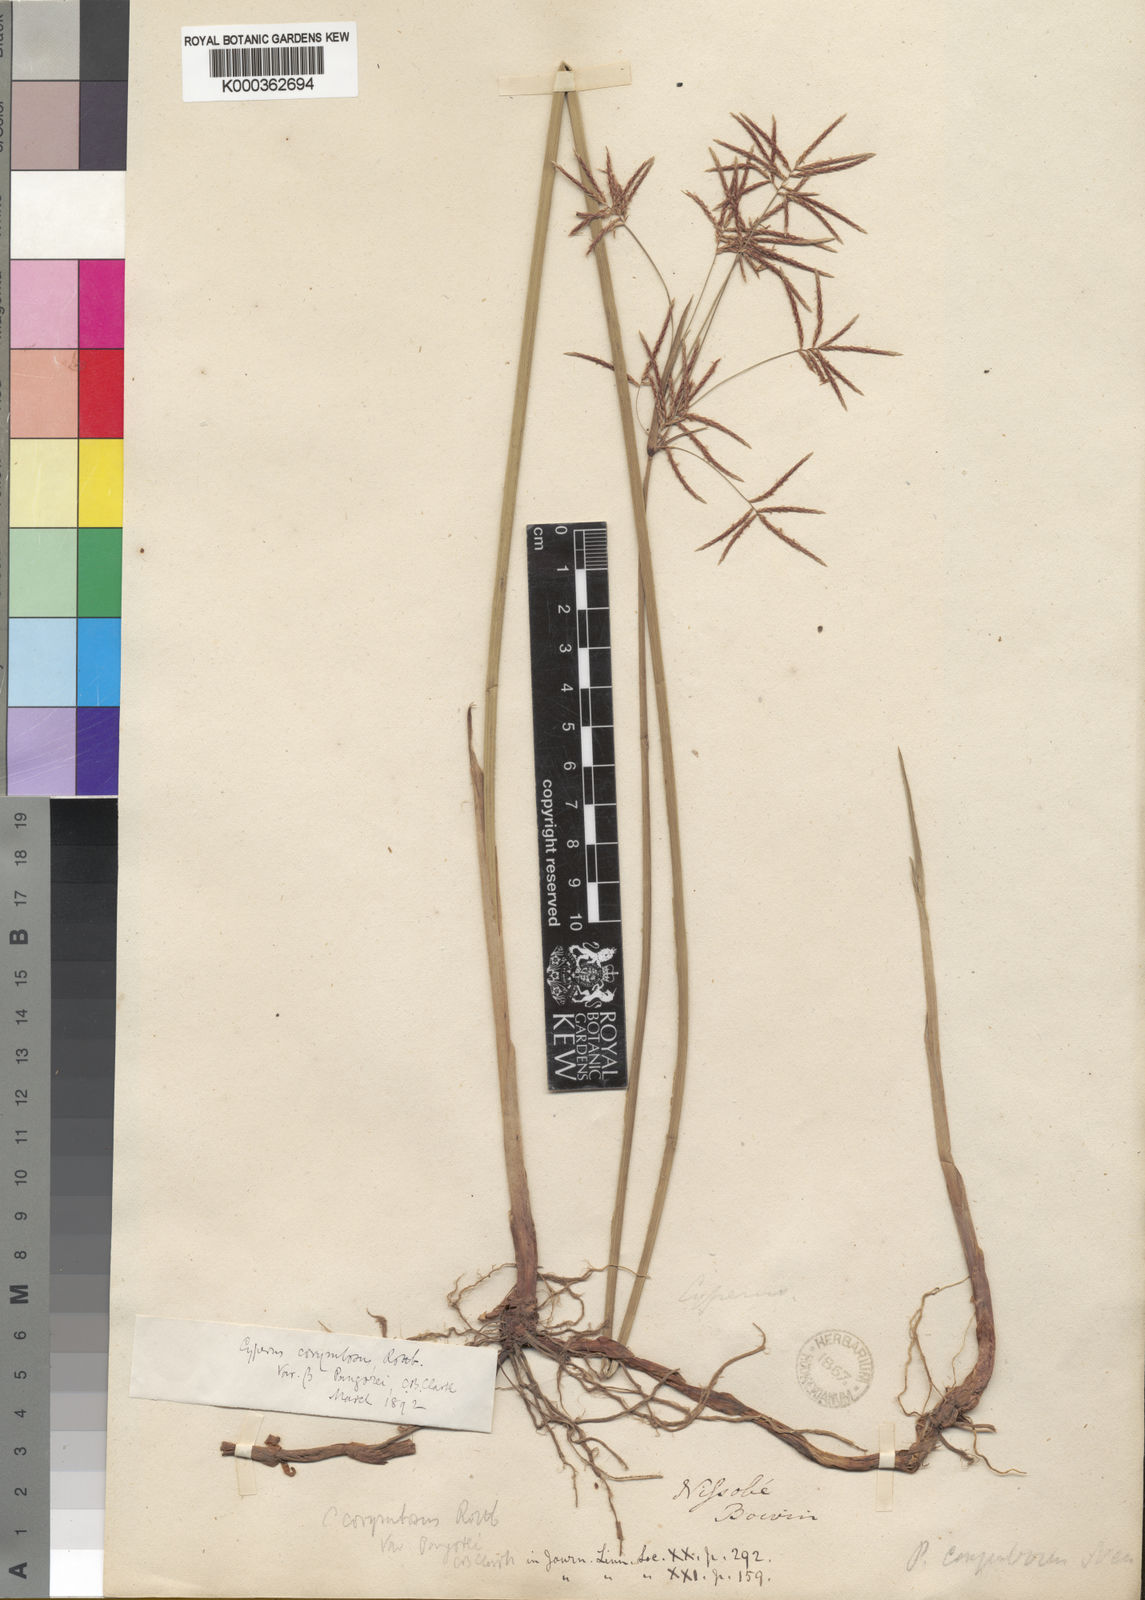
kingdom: Plantae
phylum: Tracheophyta
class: Liliopsida
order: Poales
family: Cyperaceae
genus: Cyperus
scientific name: Cyperus
